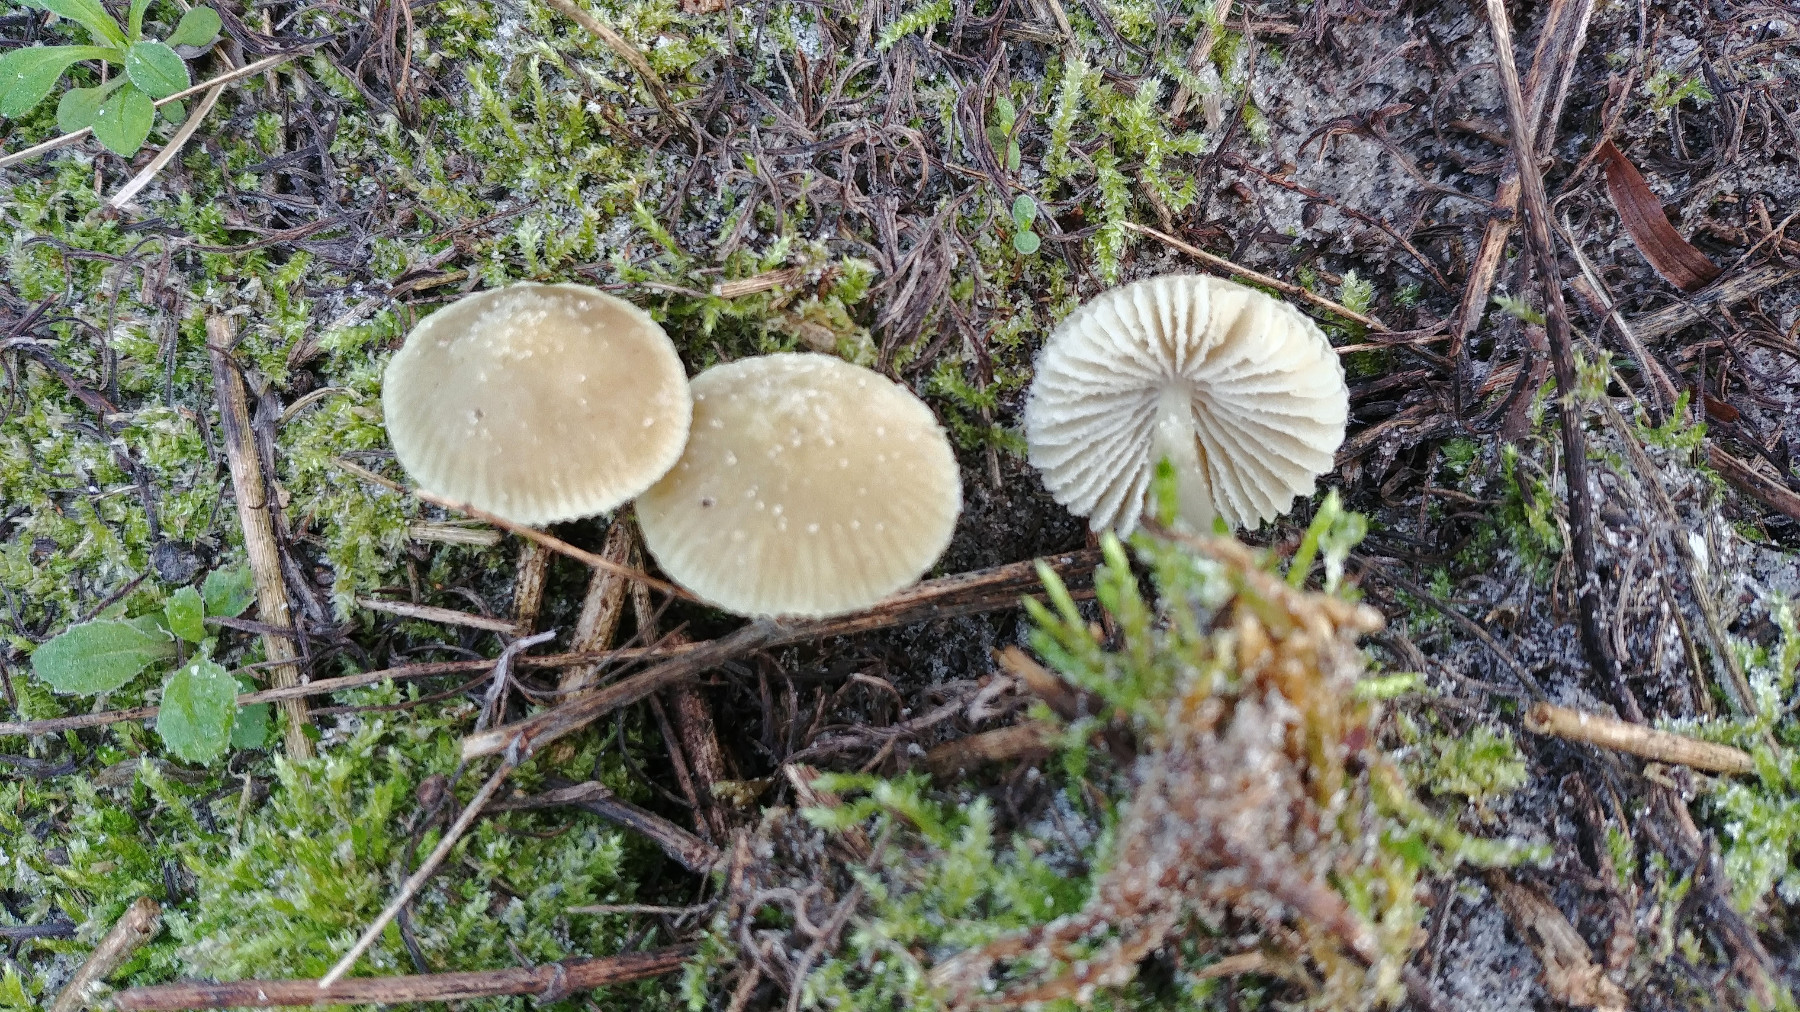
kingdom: Fungi
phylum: Basidiomycota
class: Agaricomycetes
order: Agaricales
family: Mycenaceae
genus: Mycena
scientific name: Mycena chlorantha
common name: klit-huesvamp
